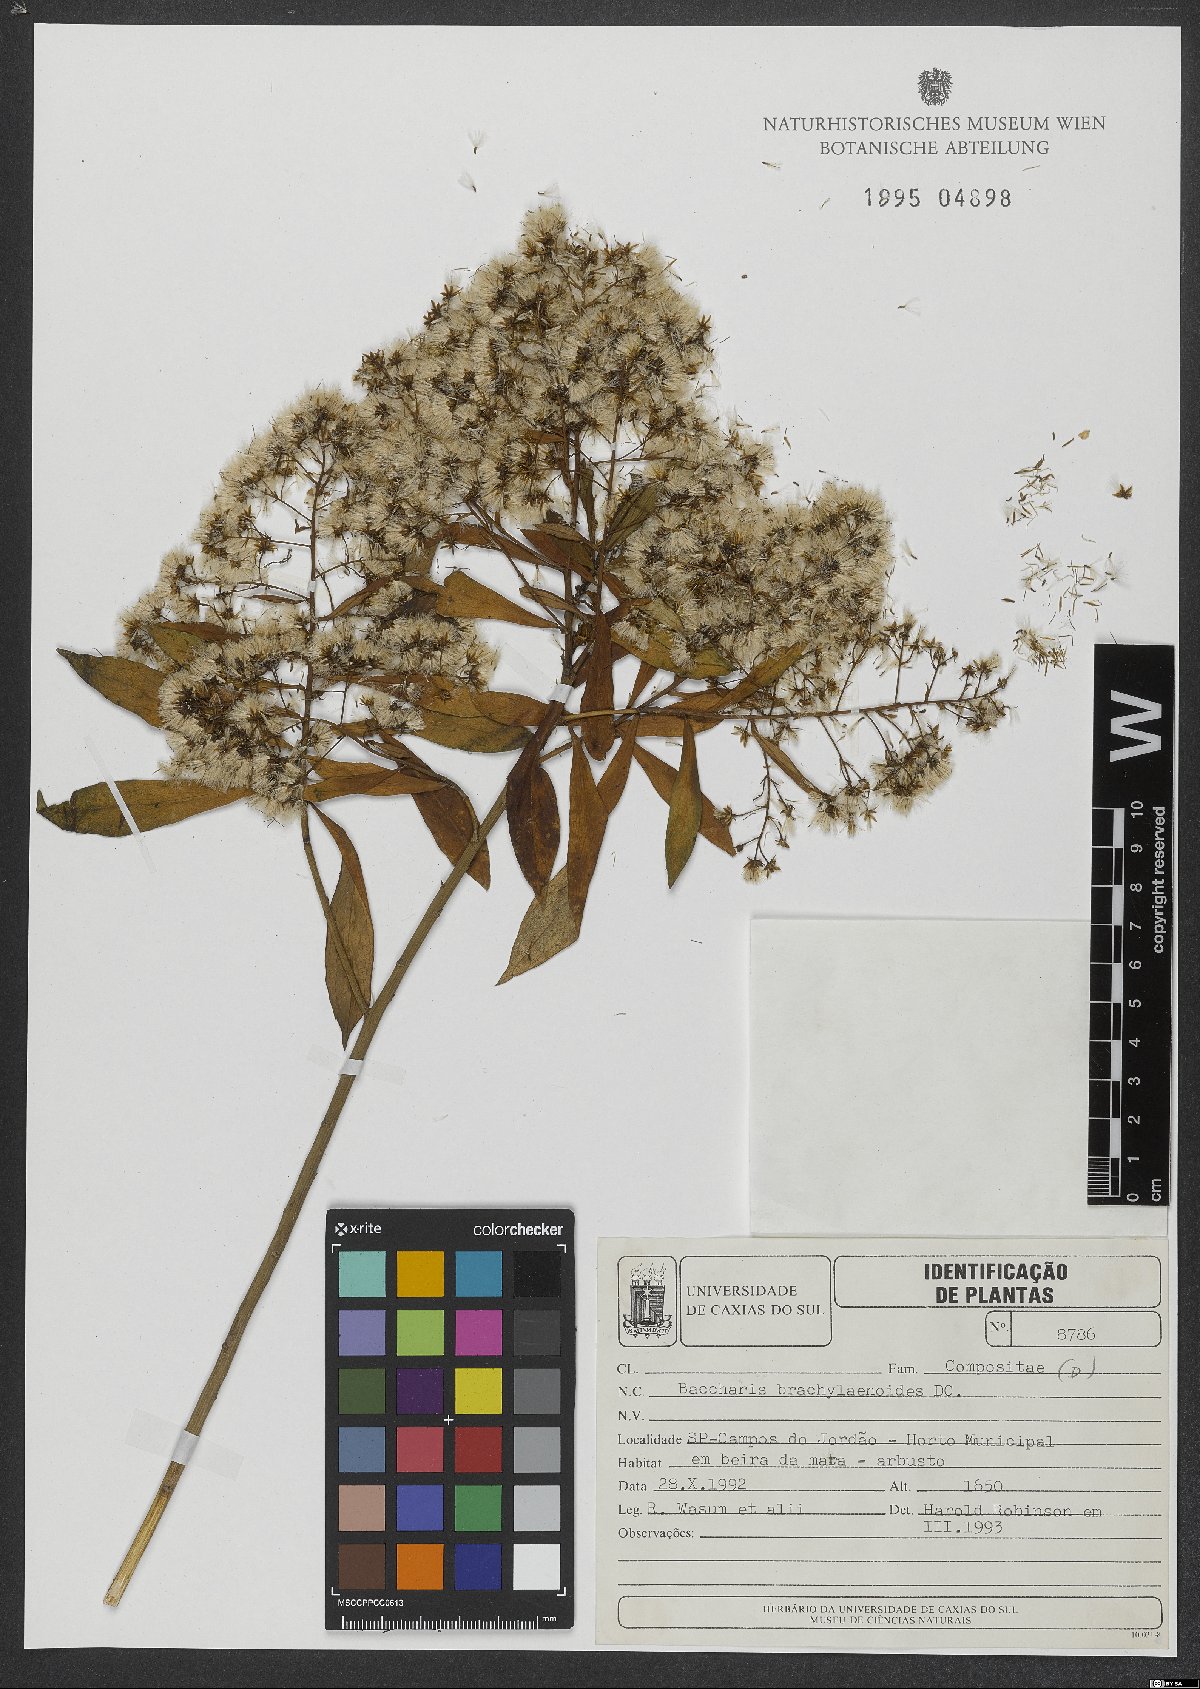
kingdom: Plantae
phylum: Tracheophyta
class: Magnoliopsida
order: Asterales
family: Asteraceae
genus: Baccharis
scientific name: Baccharis oblongifolia
